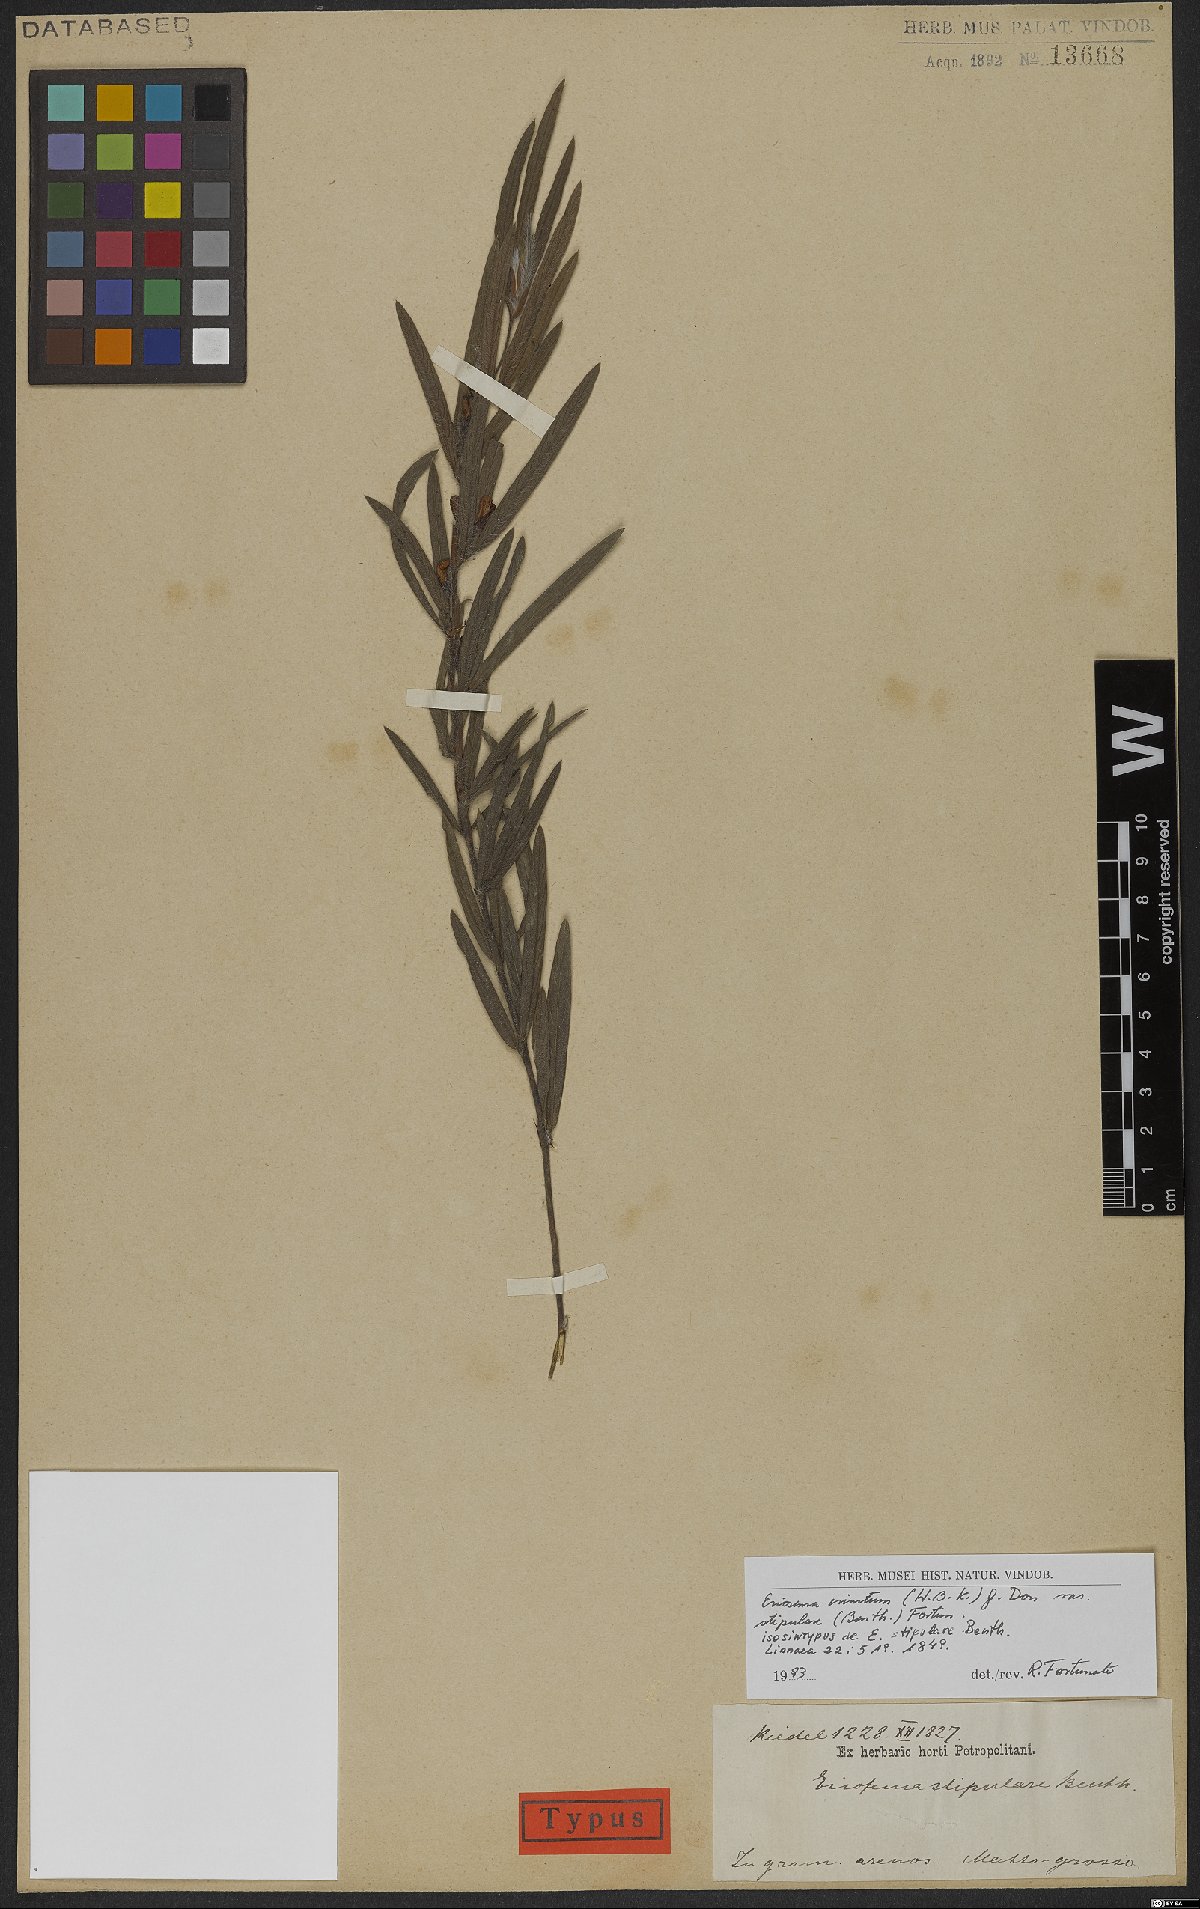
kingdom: Plantae
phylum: Tracheophyta
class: Magnoliopsida
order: Fabales
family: Fabaceae
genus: Eriosema
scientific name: Eriosema crinitum
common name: Sand pea
